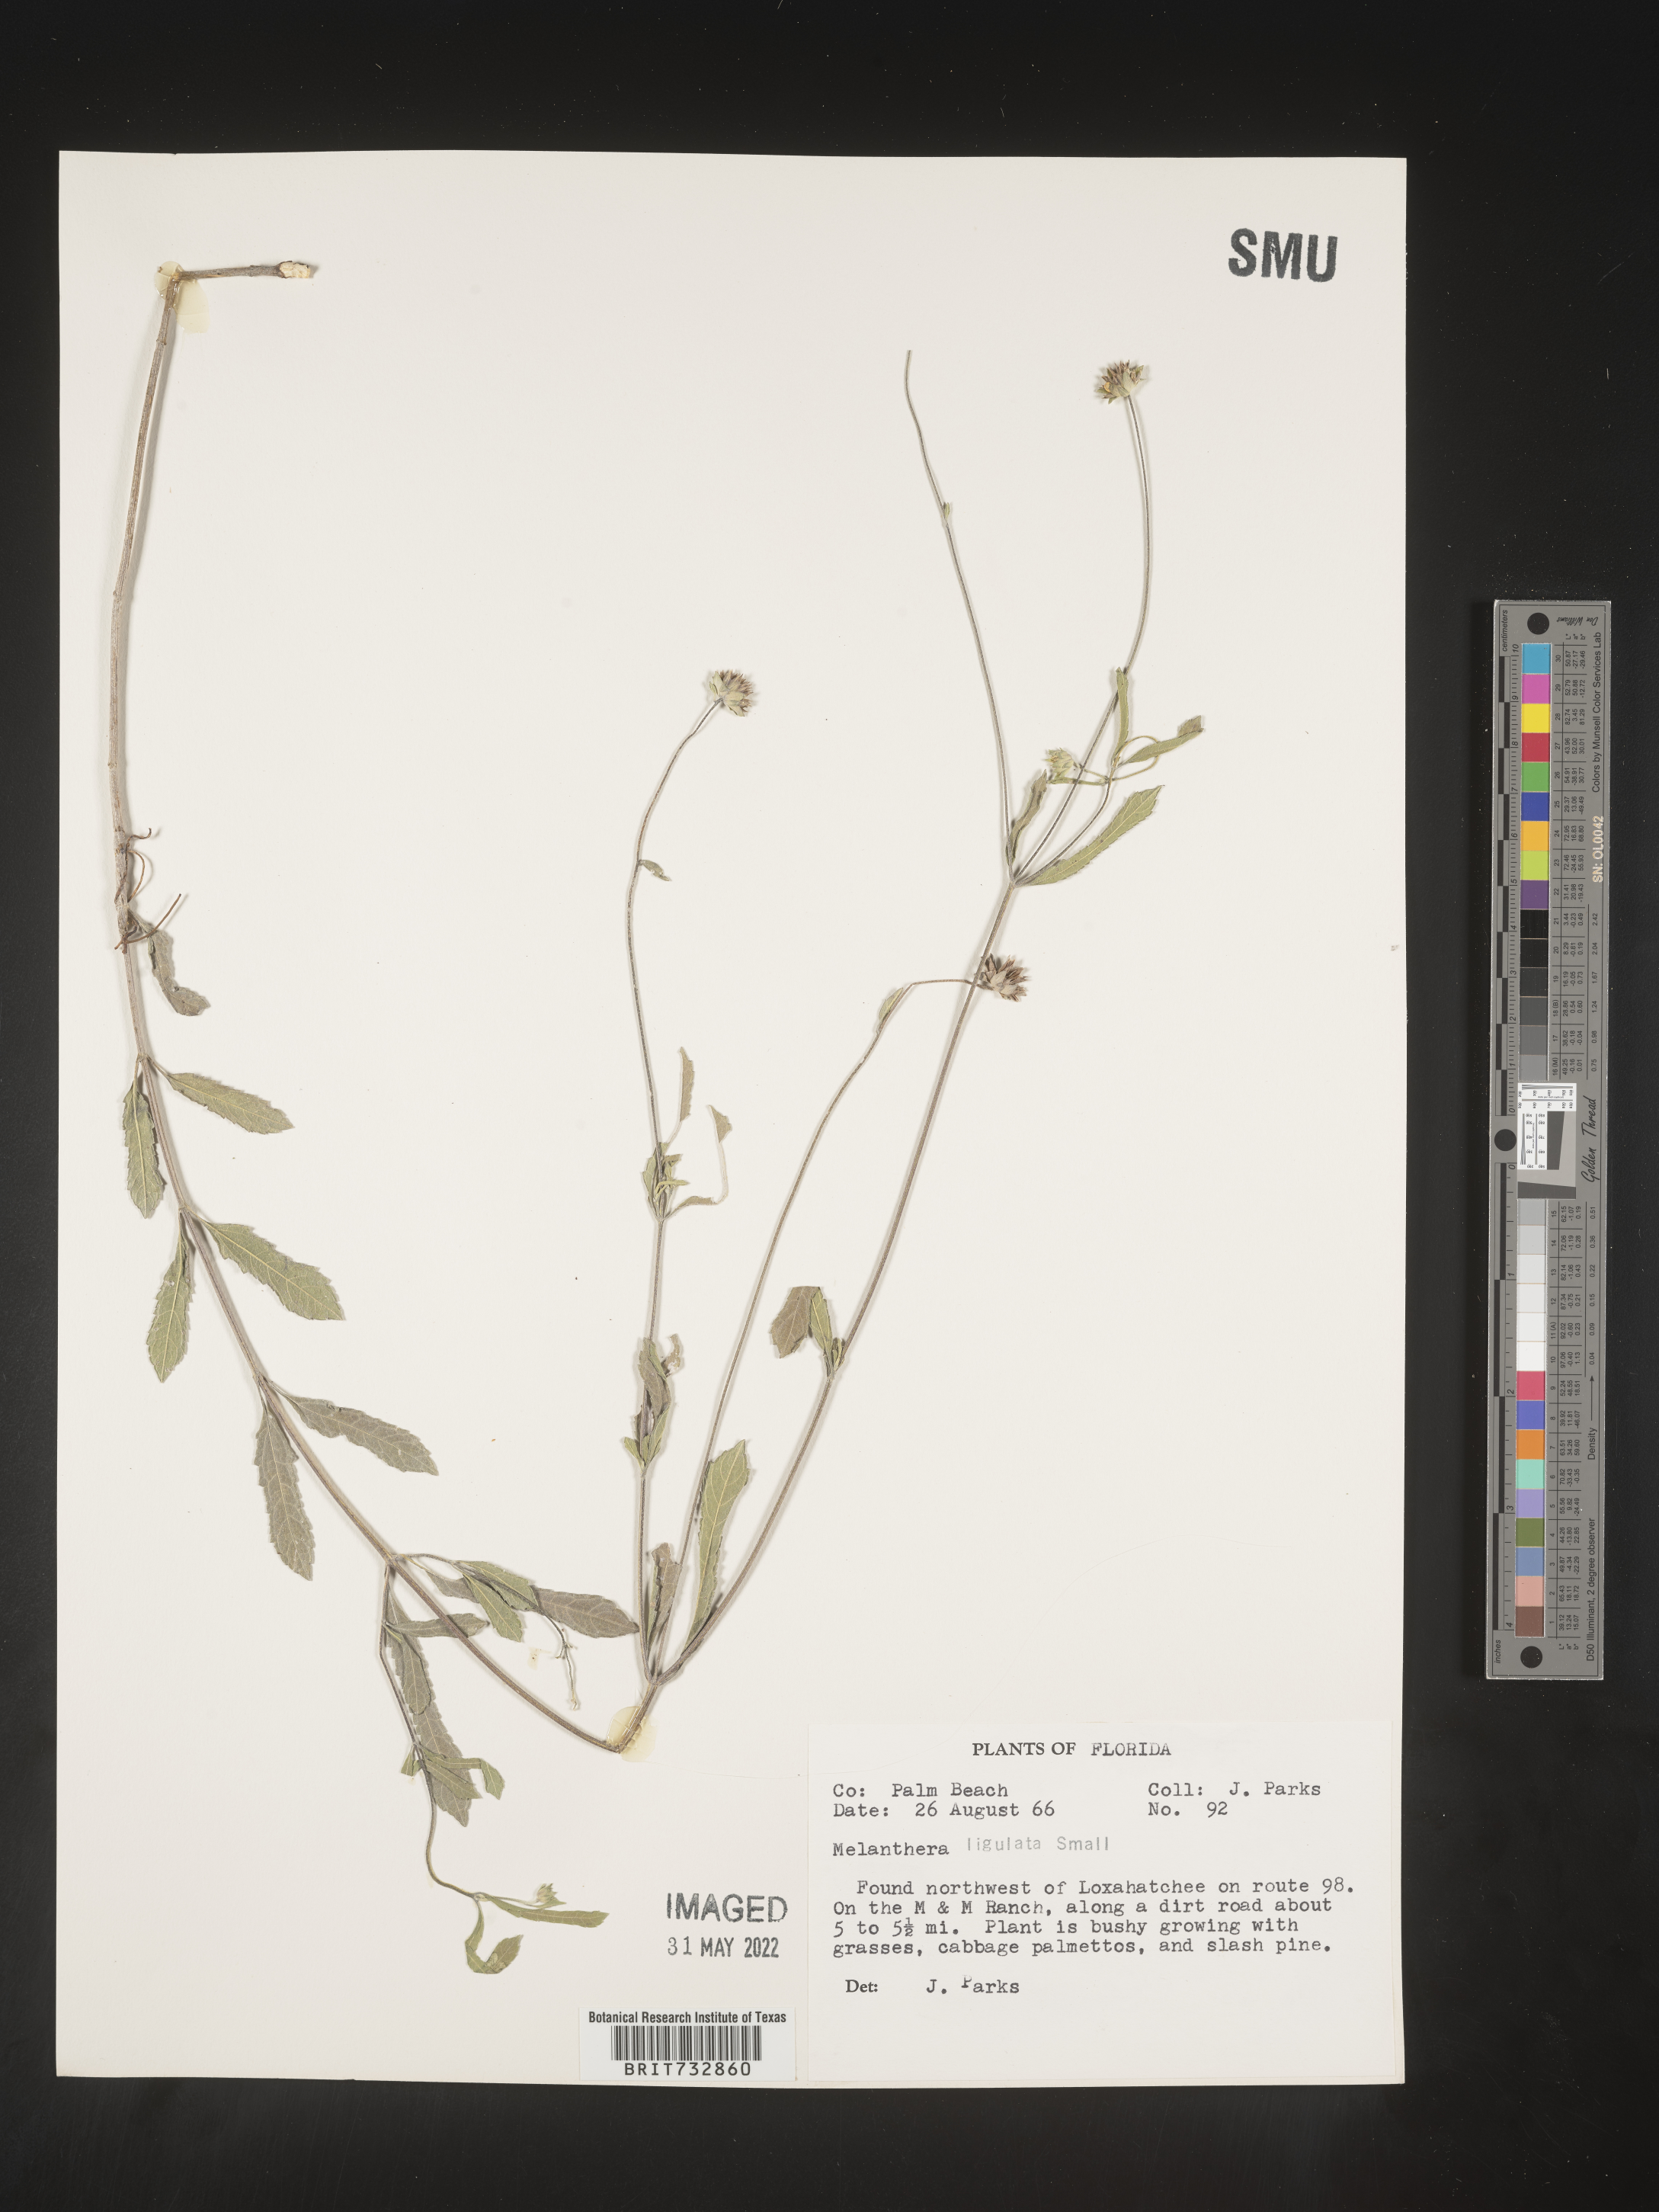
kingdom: Plantae
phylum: Tracheophyta
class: Magnoliopsida
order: Asterales
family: Asteraceae
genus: Melanthera
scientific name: Melanthera nivea
